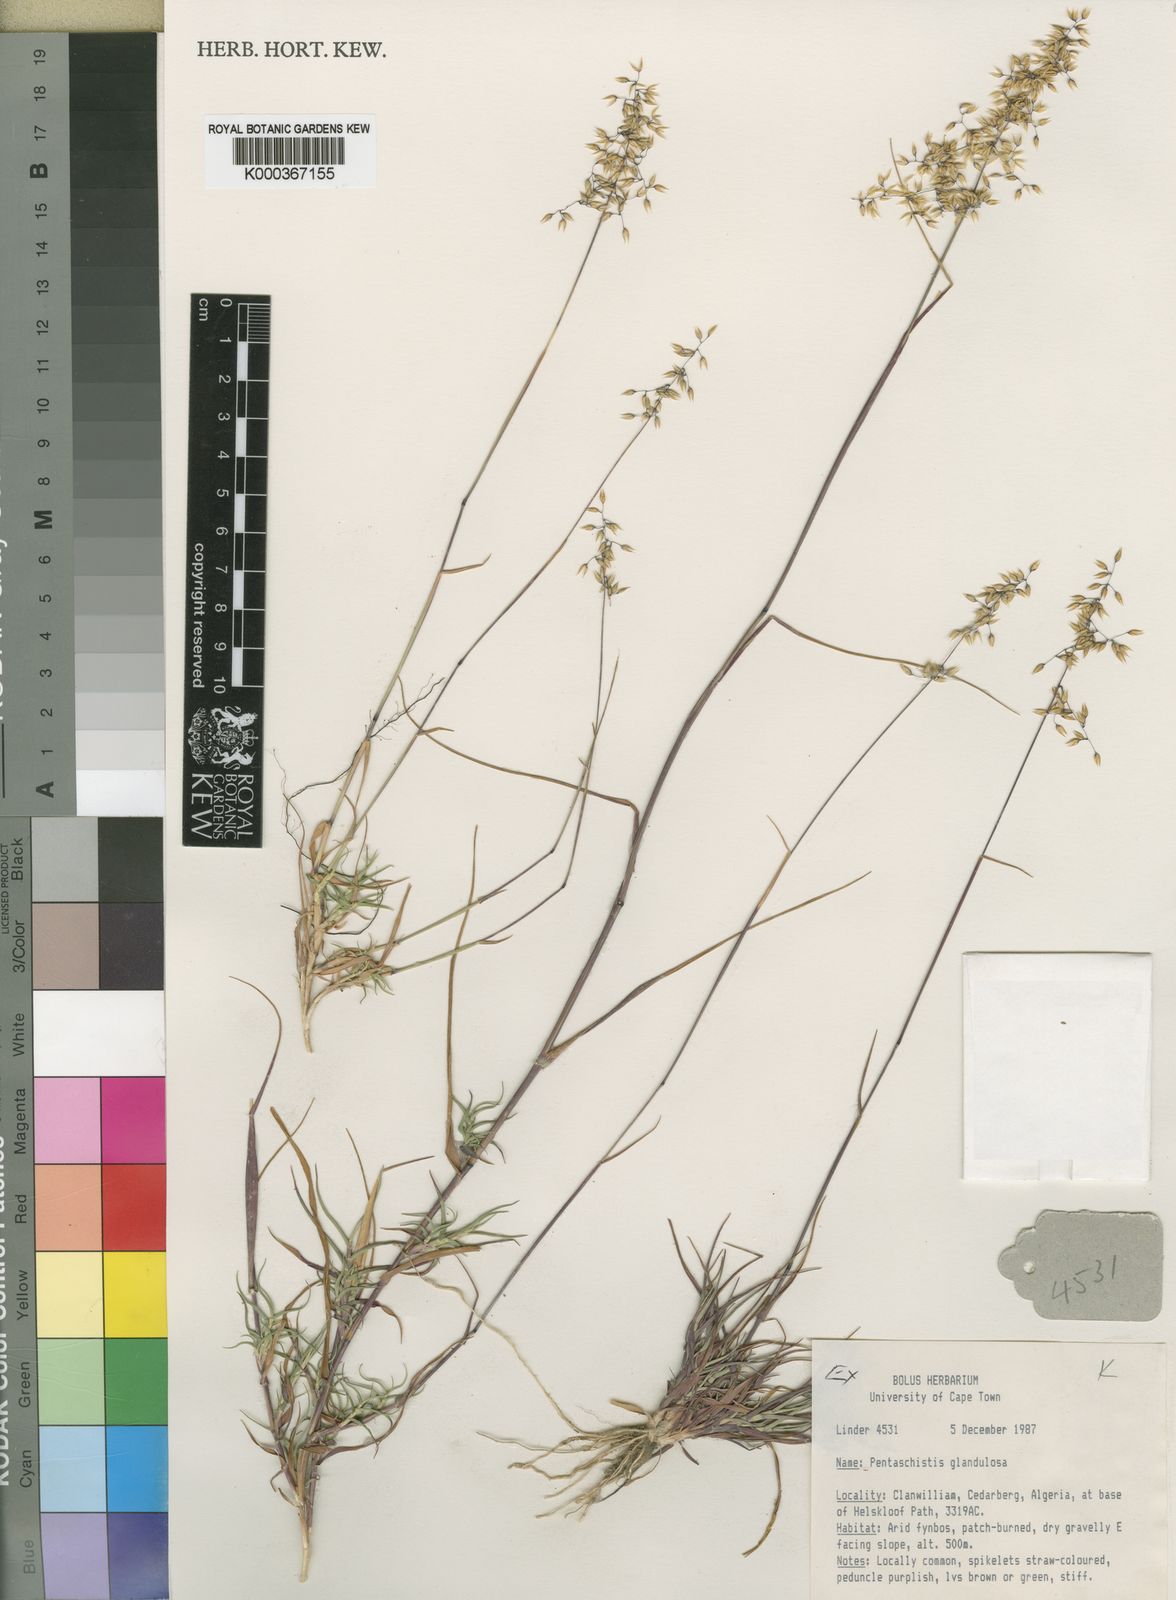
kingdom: Plantae
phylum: Tracheophyta
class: Liliopsida
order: Poales
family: Poaceae
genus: Pentameris
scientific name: Pentameris reflexa
